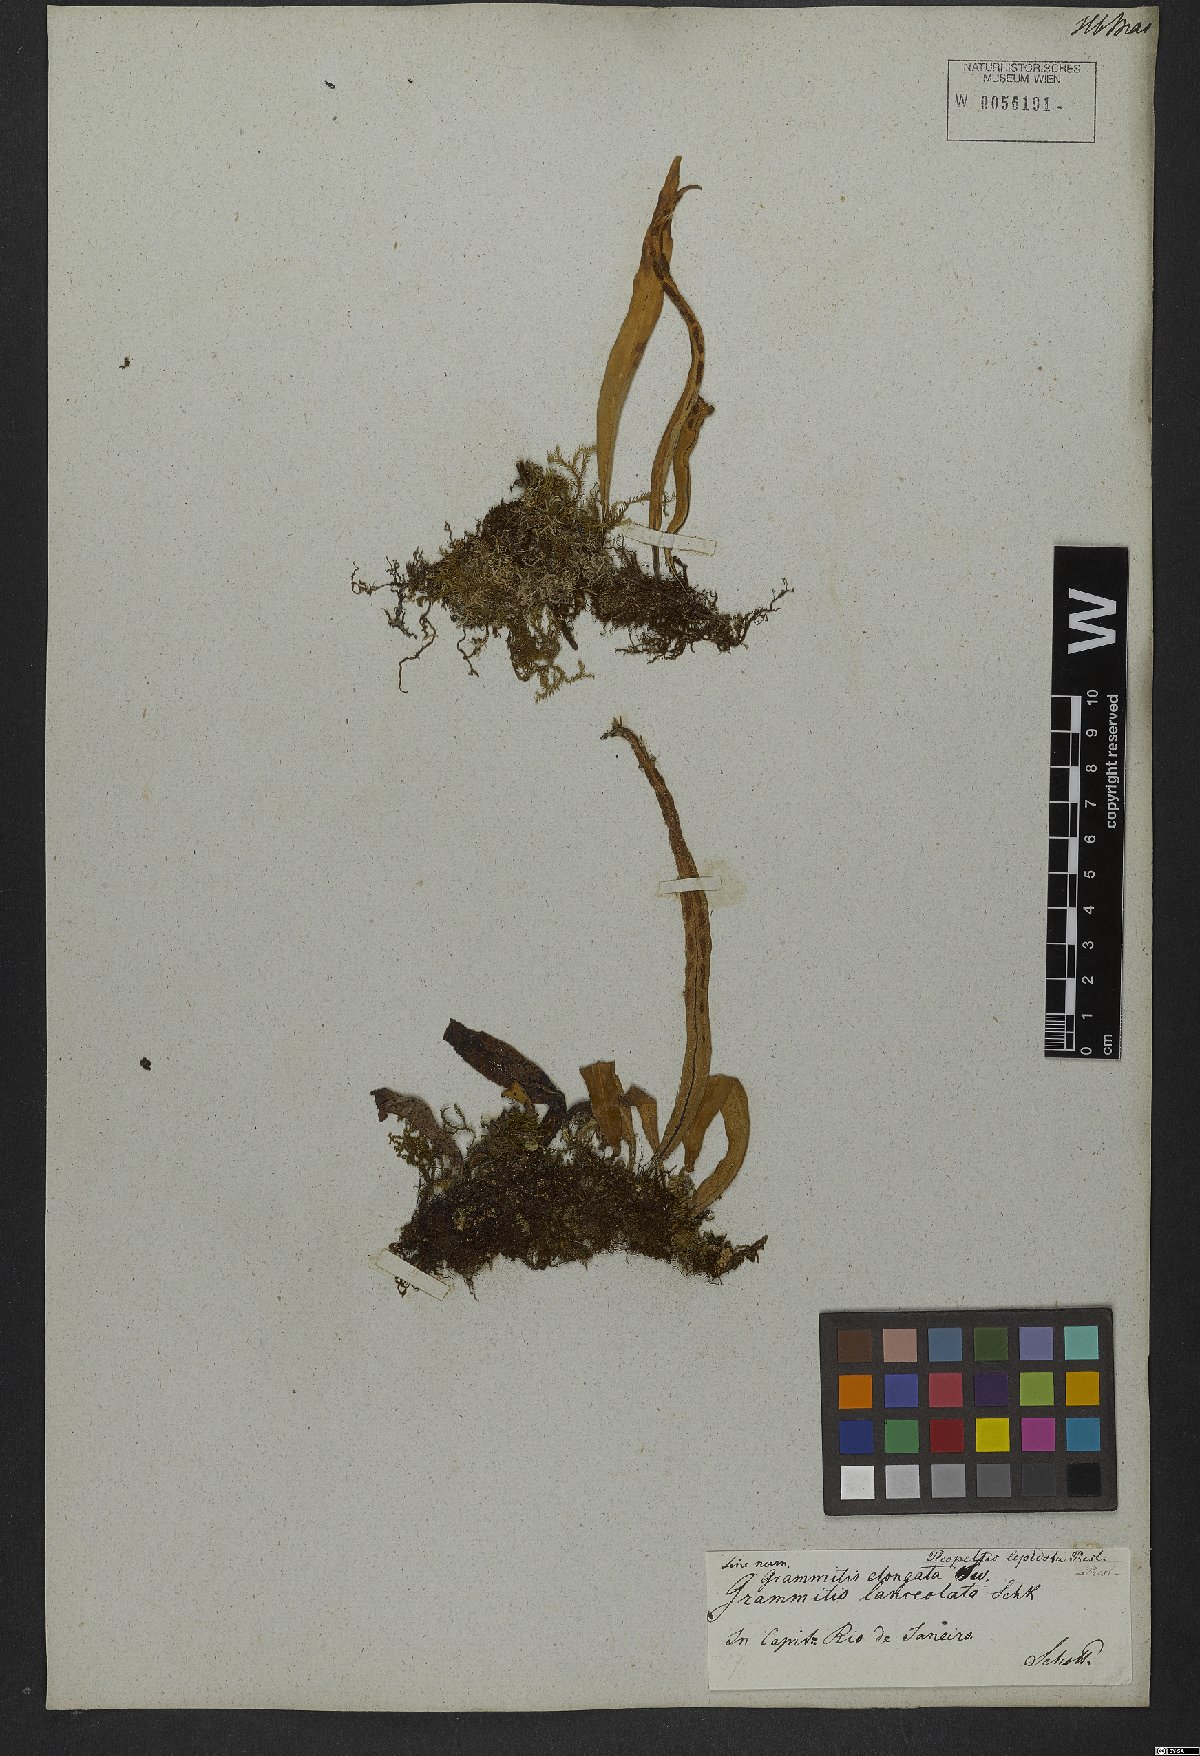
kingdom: Plantae
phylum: Tracheophyta
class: Polypodiopsida
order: Polypodiales
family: Polypodiaceae
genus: Pleopeltis
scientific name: Pleopeltis macrocarpa
